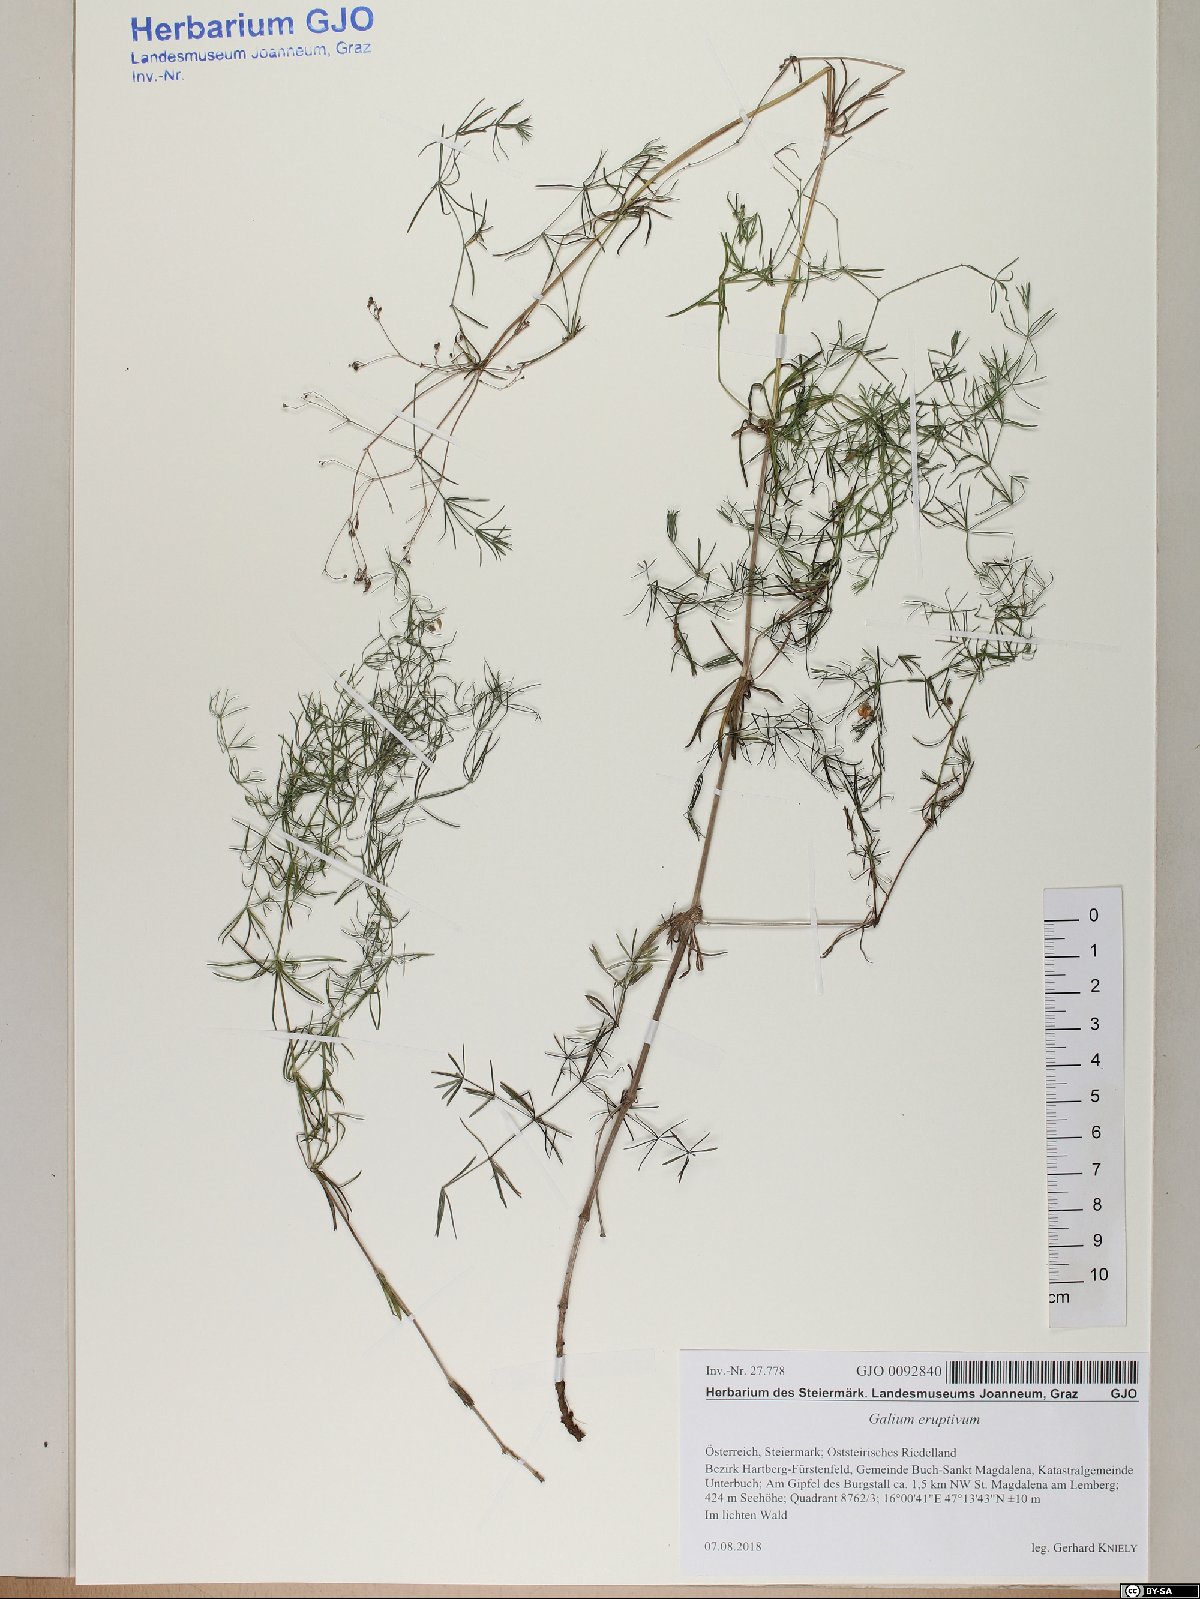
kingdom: Plantae
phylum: Tracheophyta
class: Magnoliopsida
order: Gentianales
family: Rubiaceae
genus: Galium
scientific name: Galium eruptivum
